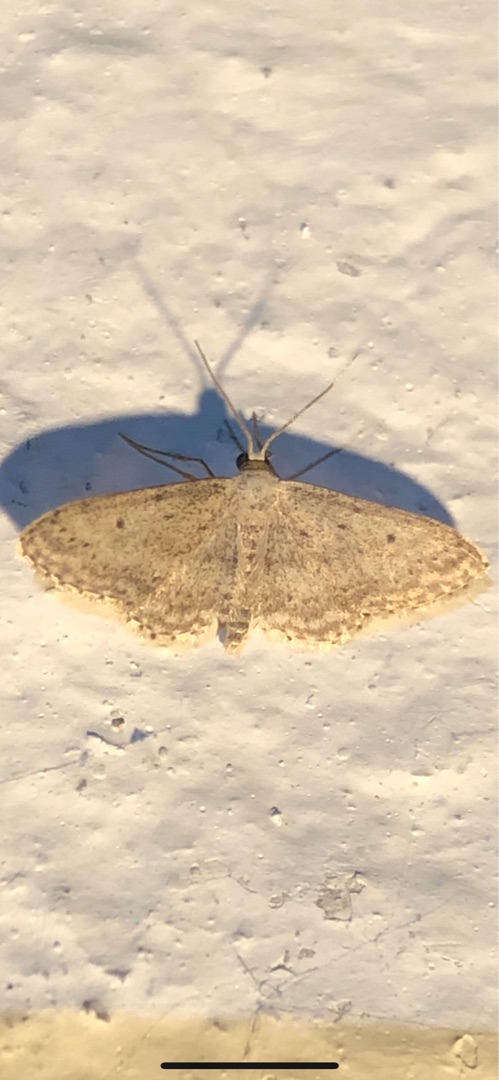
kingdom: Animalia
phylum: Arthropoda
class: Insecta
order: Lepidoptera
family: Geometridae
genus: Idaea
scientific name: Idaea seriata
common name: Gråplettet løvmåler
